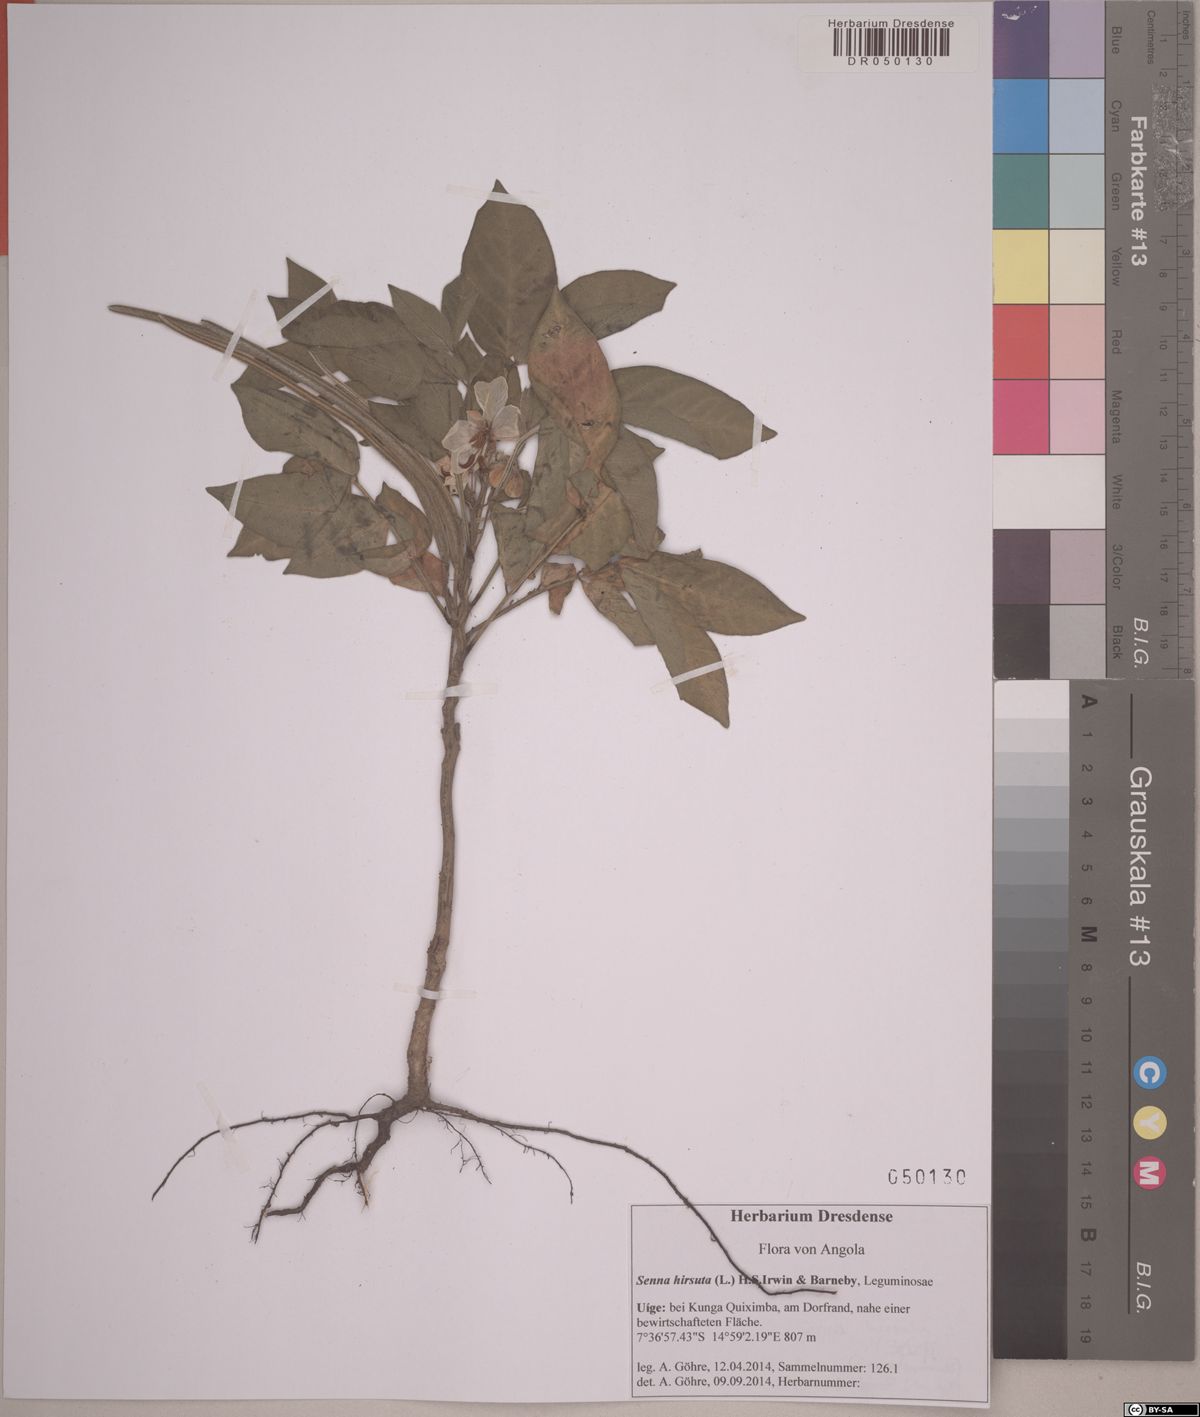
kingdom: Plantae
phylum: Tracheophyta
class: Magnoliopsida
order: Fabales
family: Fabaceae
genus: Senna
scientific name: Senna hirsuta
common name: Woolly senna
